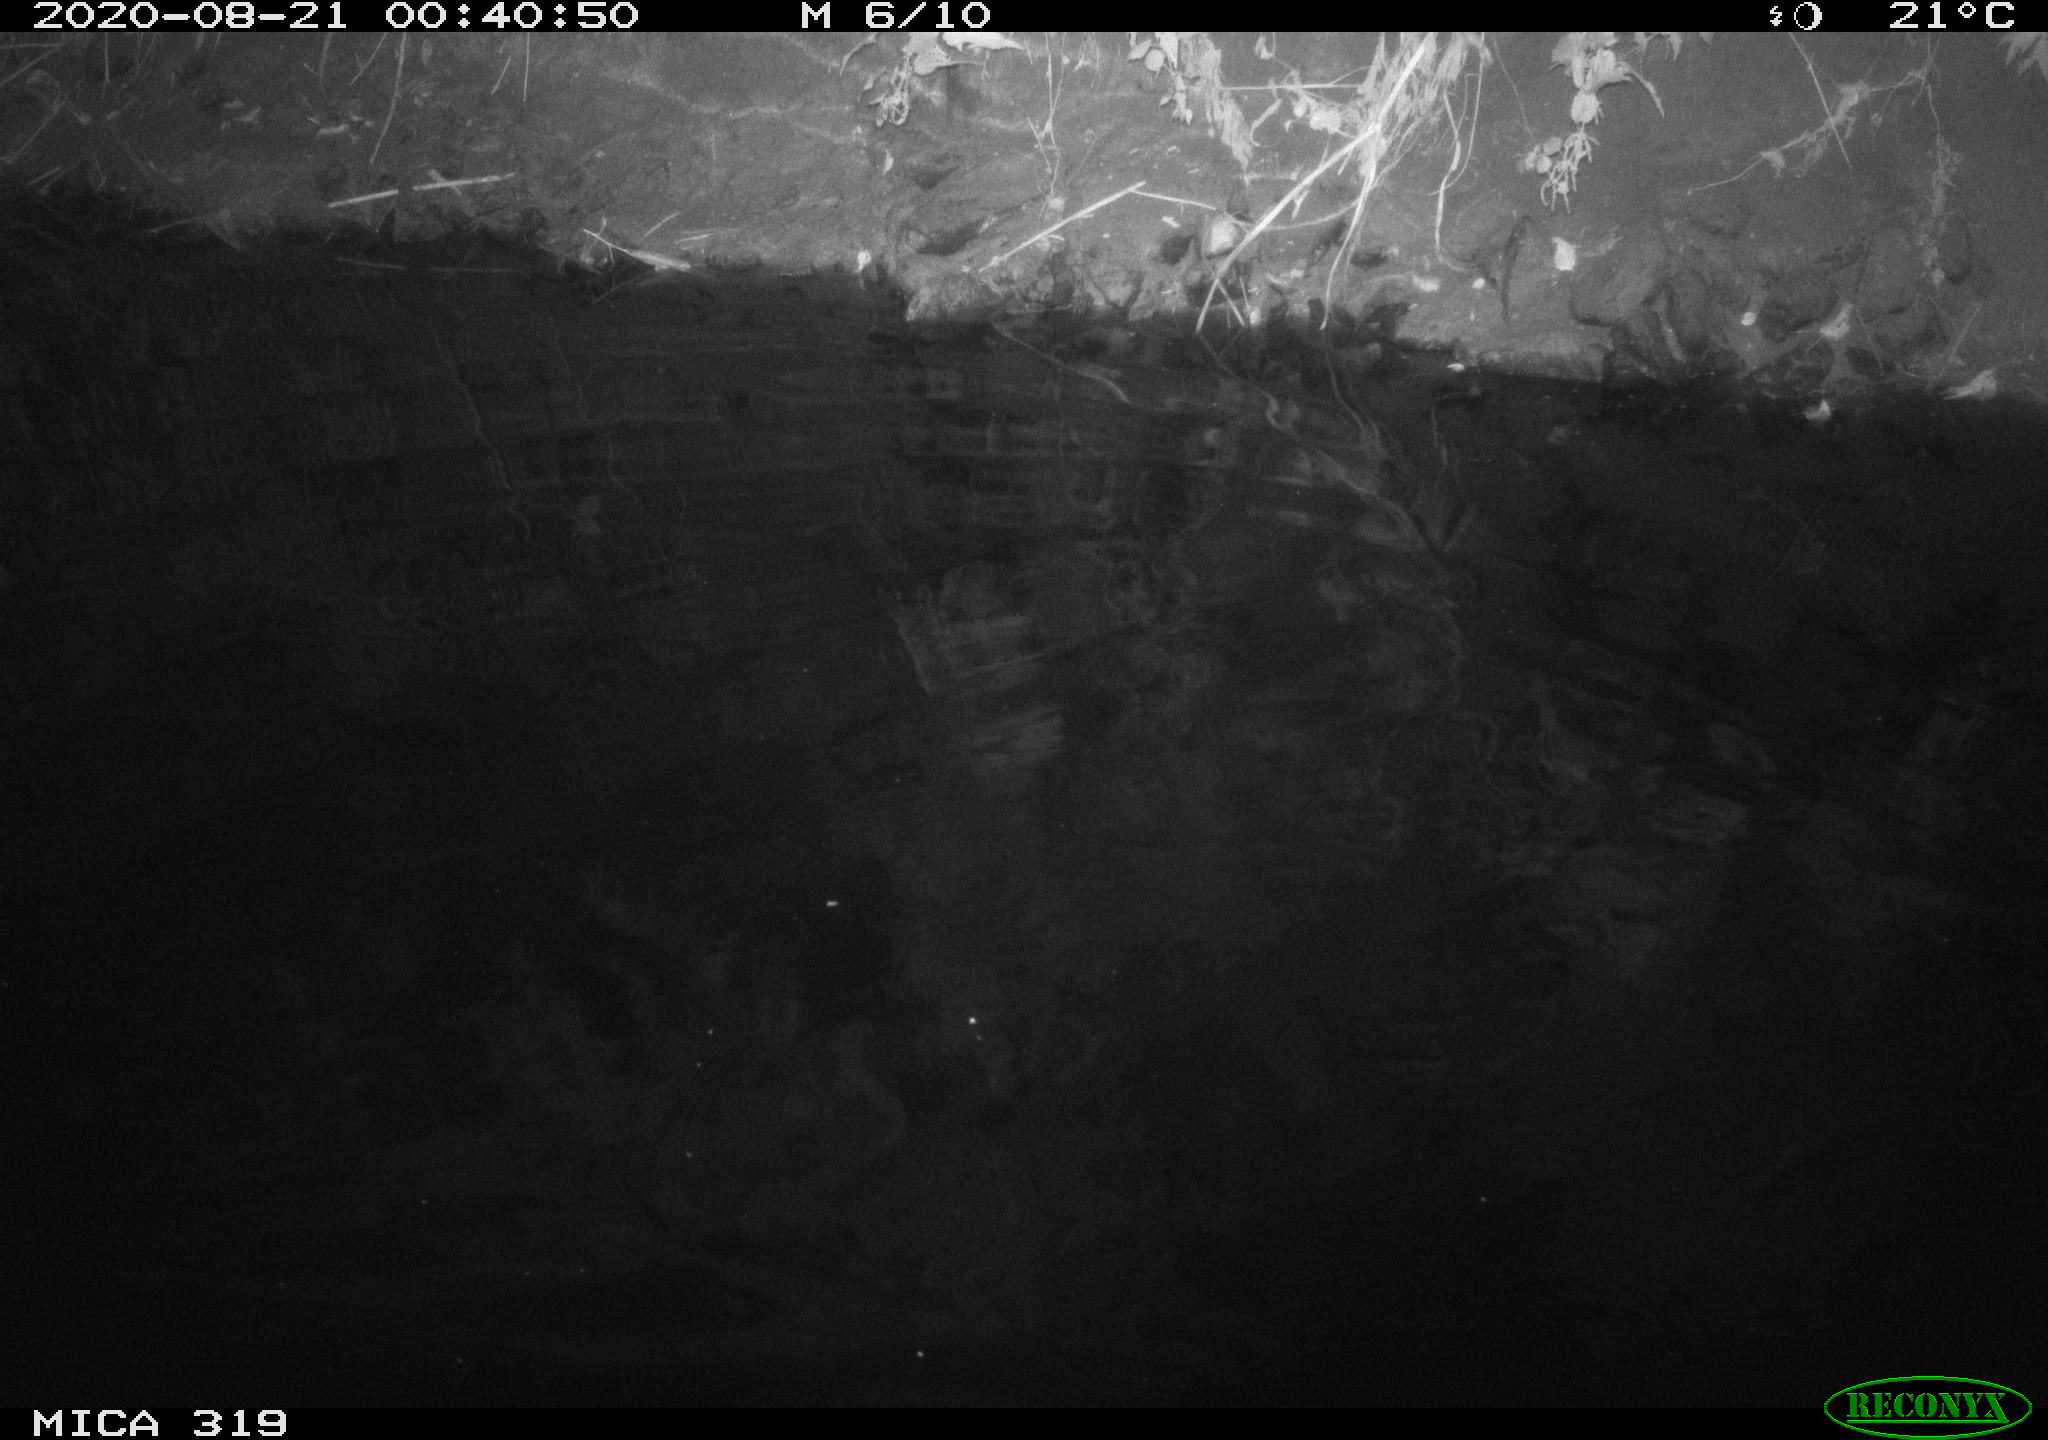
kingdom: Animalia
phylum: Chordata
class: Aves
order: Anseriformes
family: Anatidae
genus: Anas
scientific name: Anas platyrhynchos
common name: Mallard
